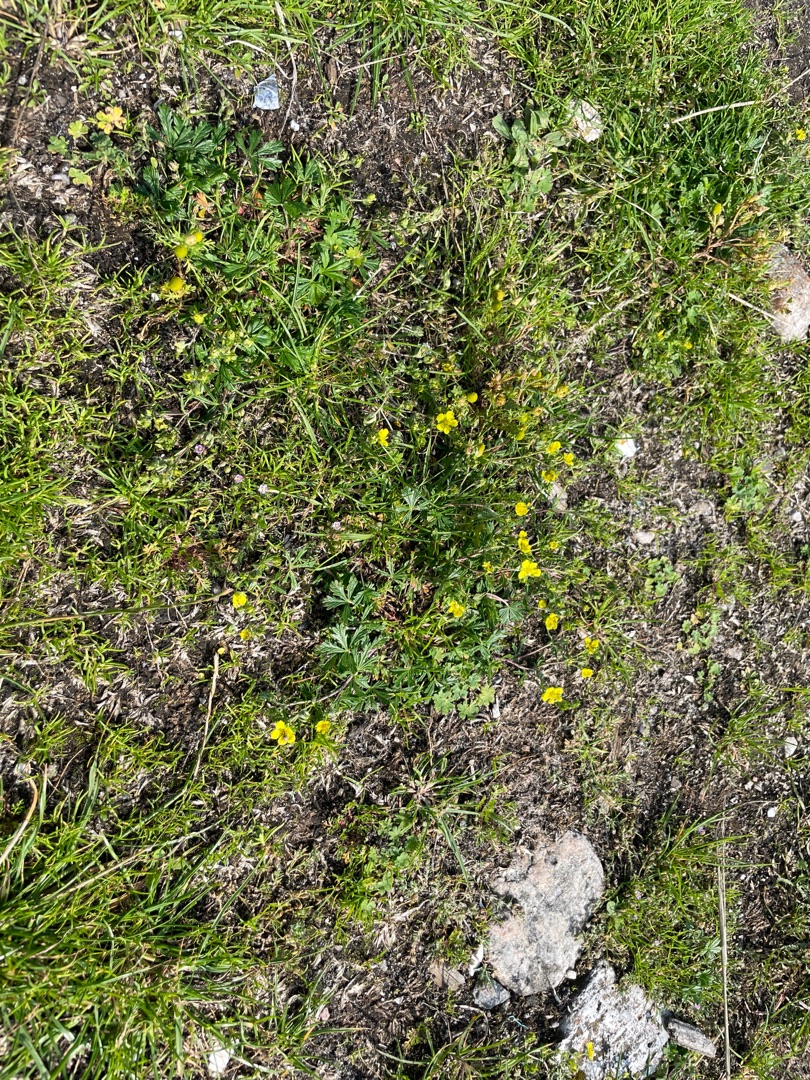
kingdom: Plantae
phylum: Tracheophyta
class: Magnoliopsida
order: Rosales
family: Rosaceae
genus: Potentilla
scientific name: Potentilla argentea
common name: Sølv-potentil
